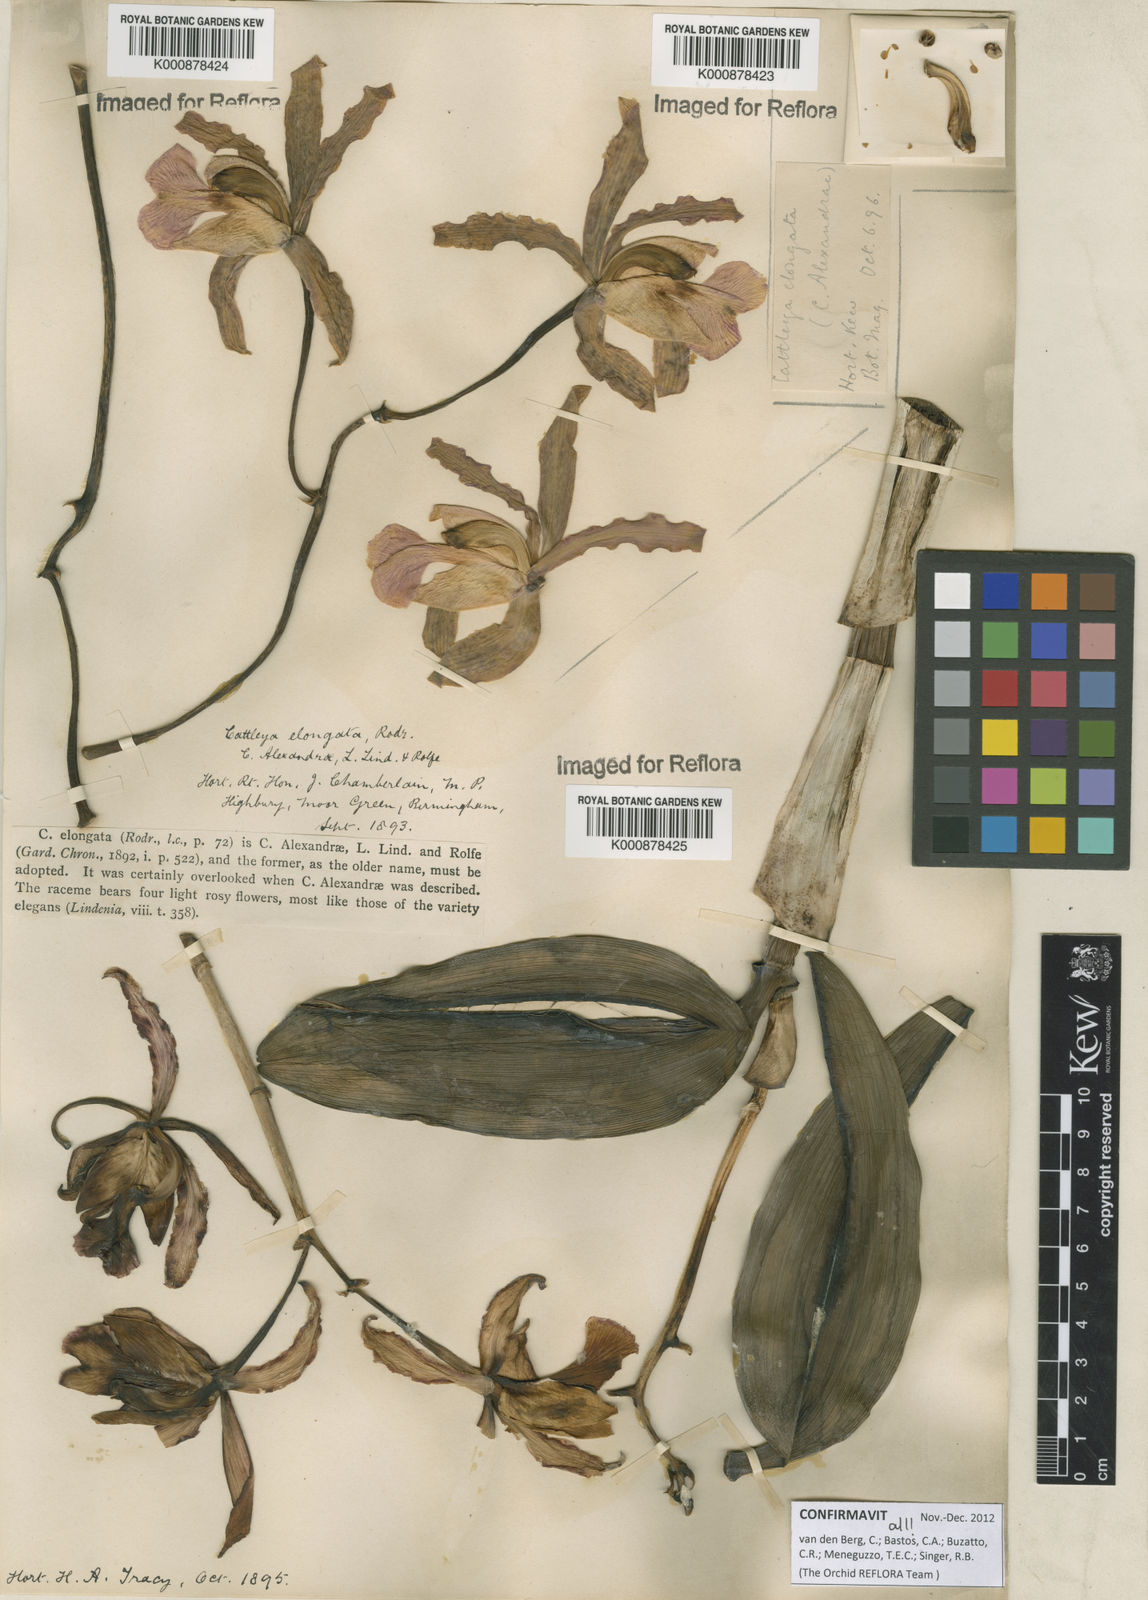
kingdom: Plantae
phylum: Tracheophyta
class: Liliopsida
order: Asparagales
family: Orchidaceae
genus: Cattleya
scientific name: Cattleya elongata
